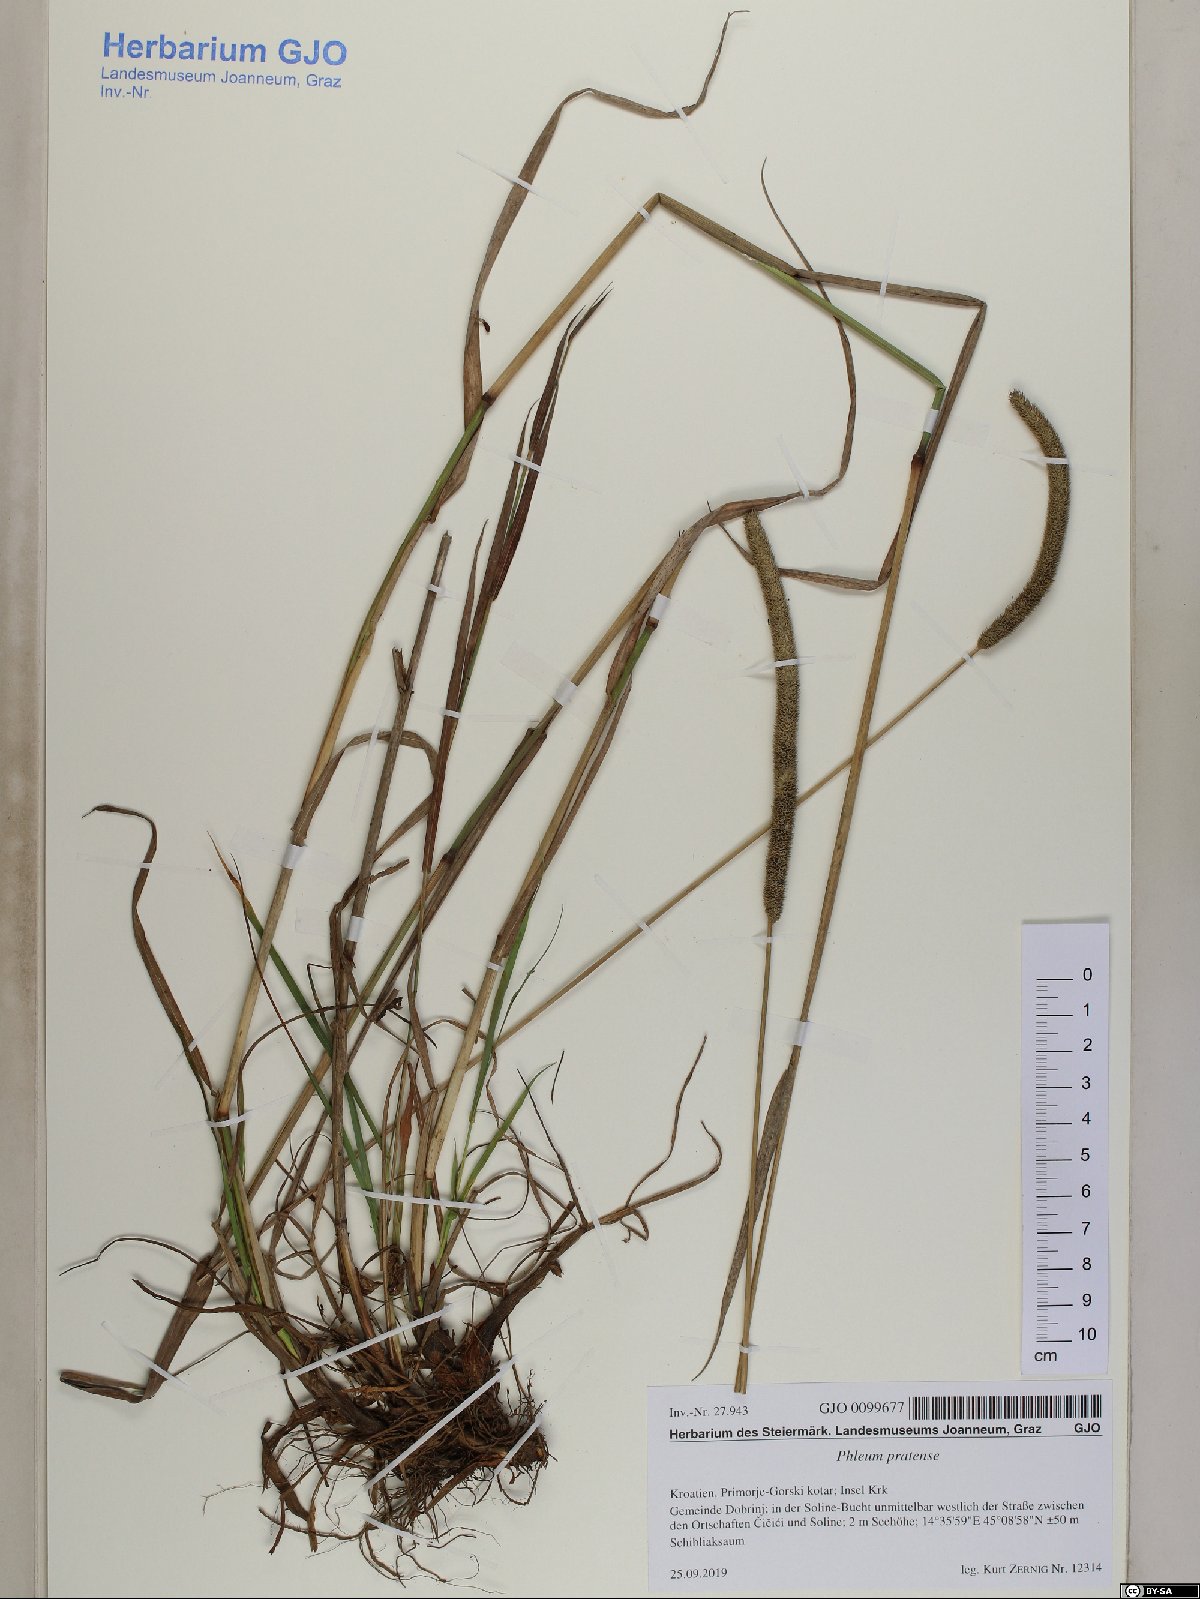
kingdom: Plantae
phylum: Tracheophyta
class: Liliopsida
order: Poales
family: Poaceae
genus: Phleum
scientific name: Phleum pratense
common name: Timothy grass
